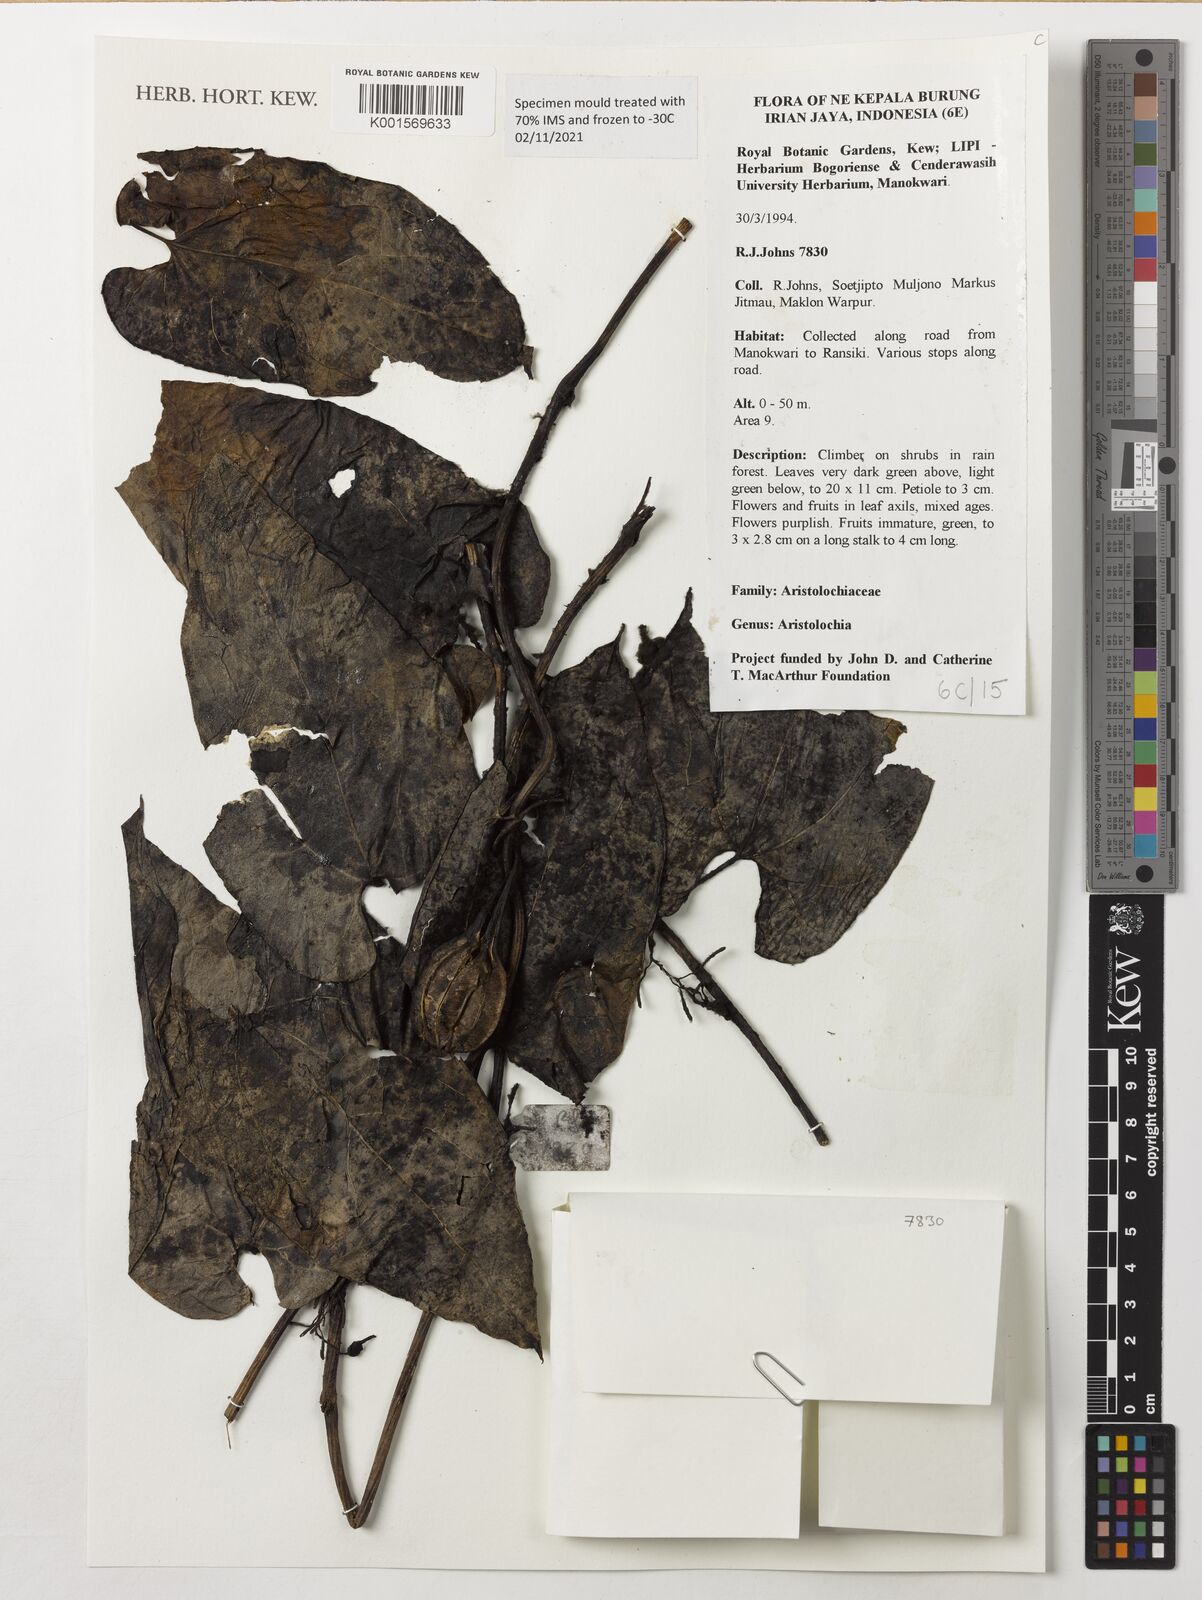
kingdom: Plantae
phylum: Tracheophyta
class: Magnoliopsida
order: Piperales
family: Aristolochiaceae
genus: Aristolochia
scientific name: Aristolochia
